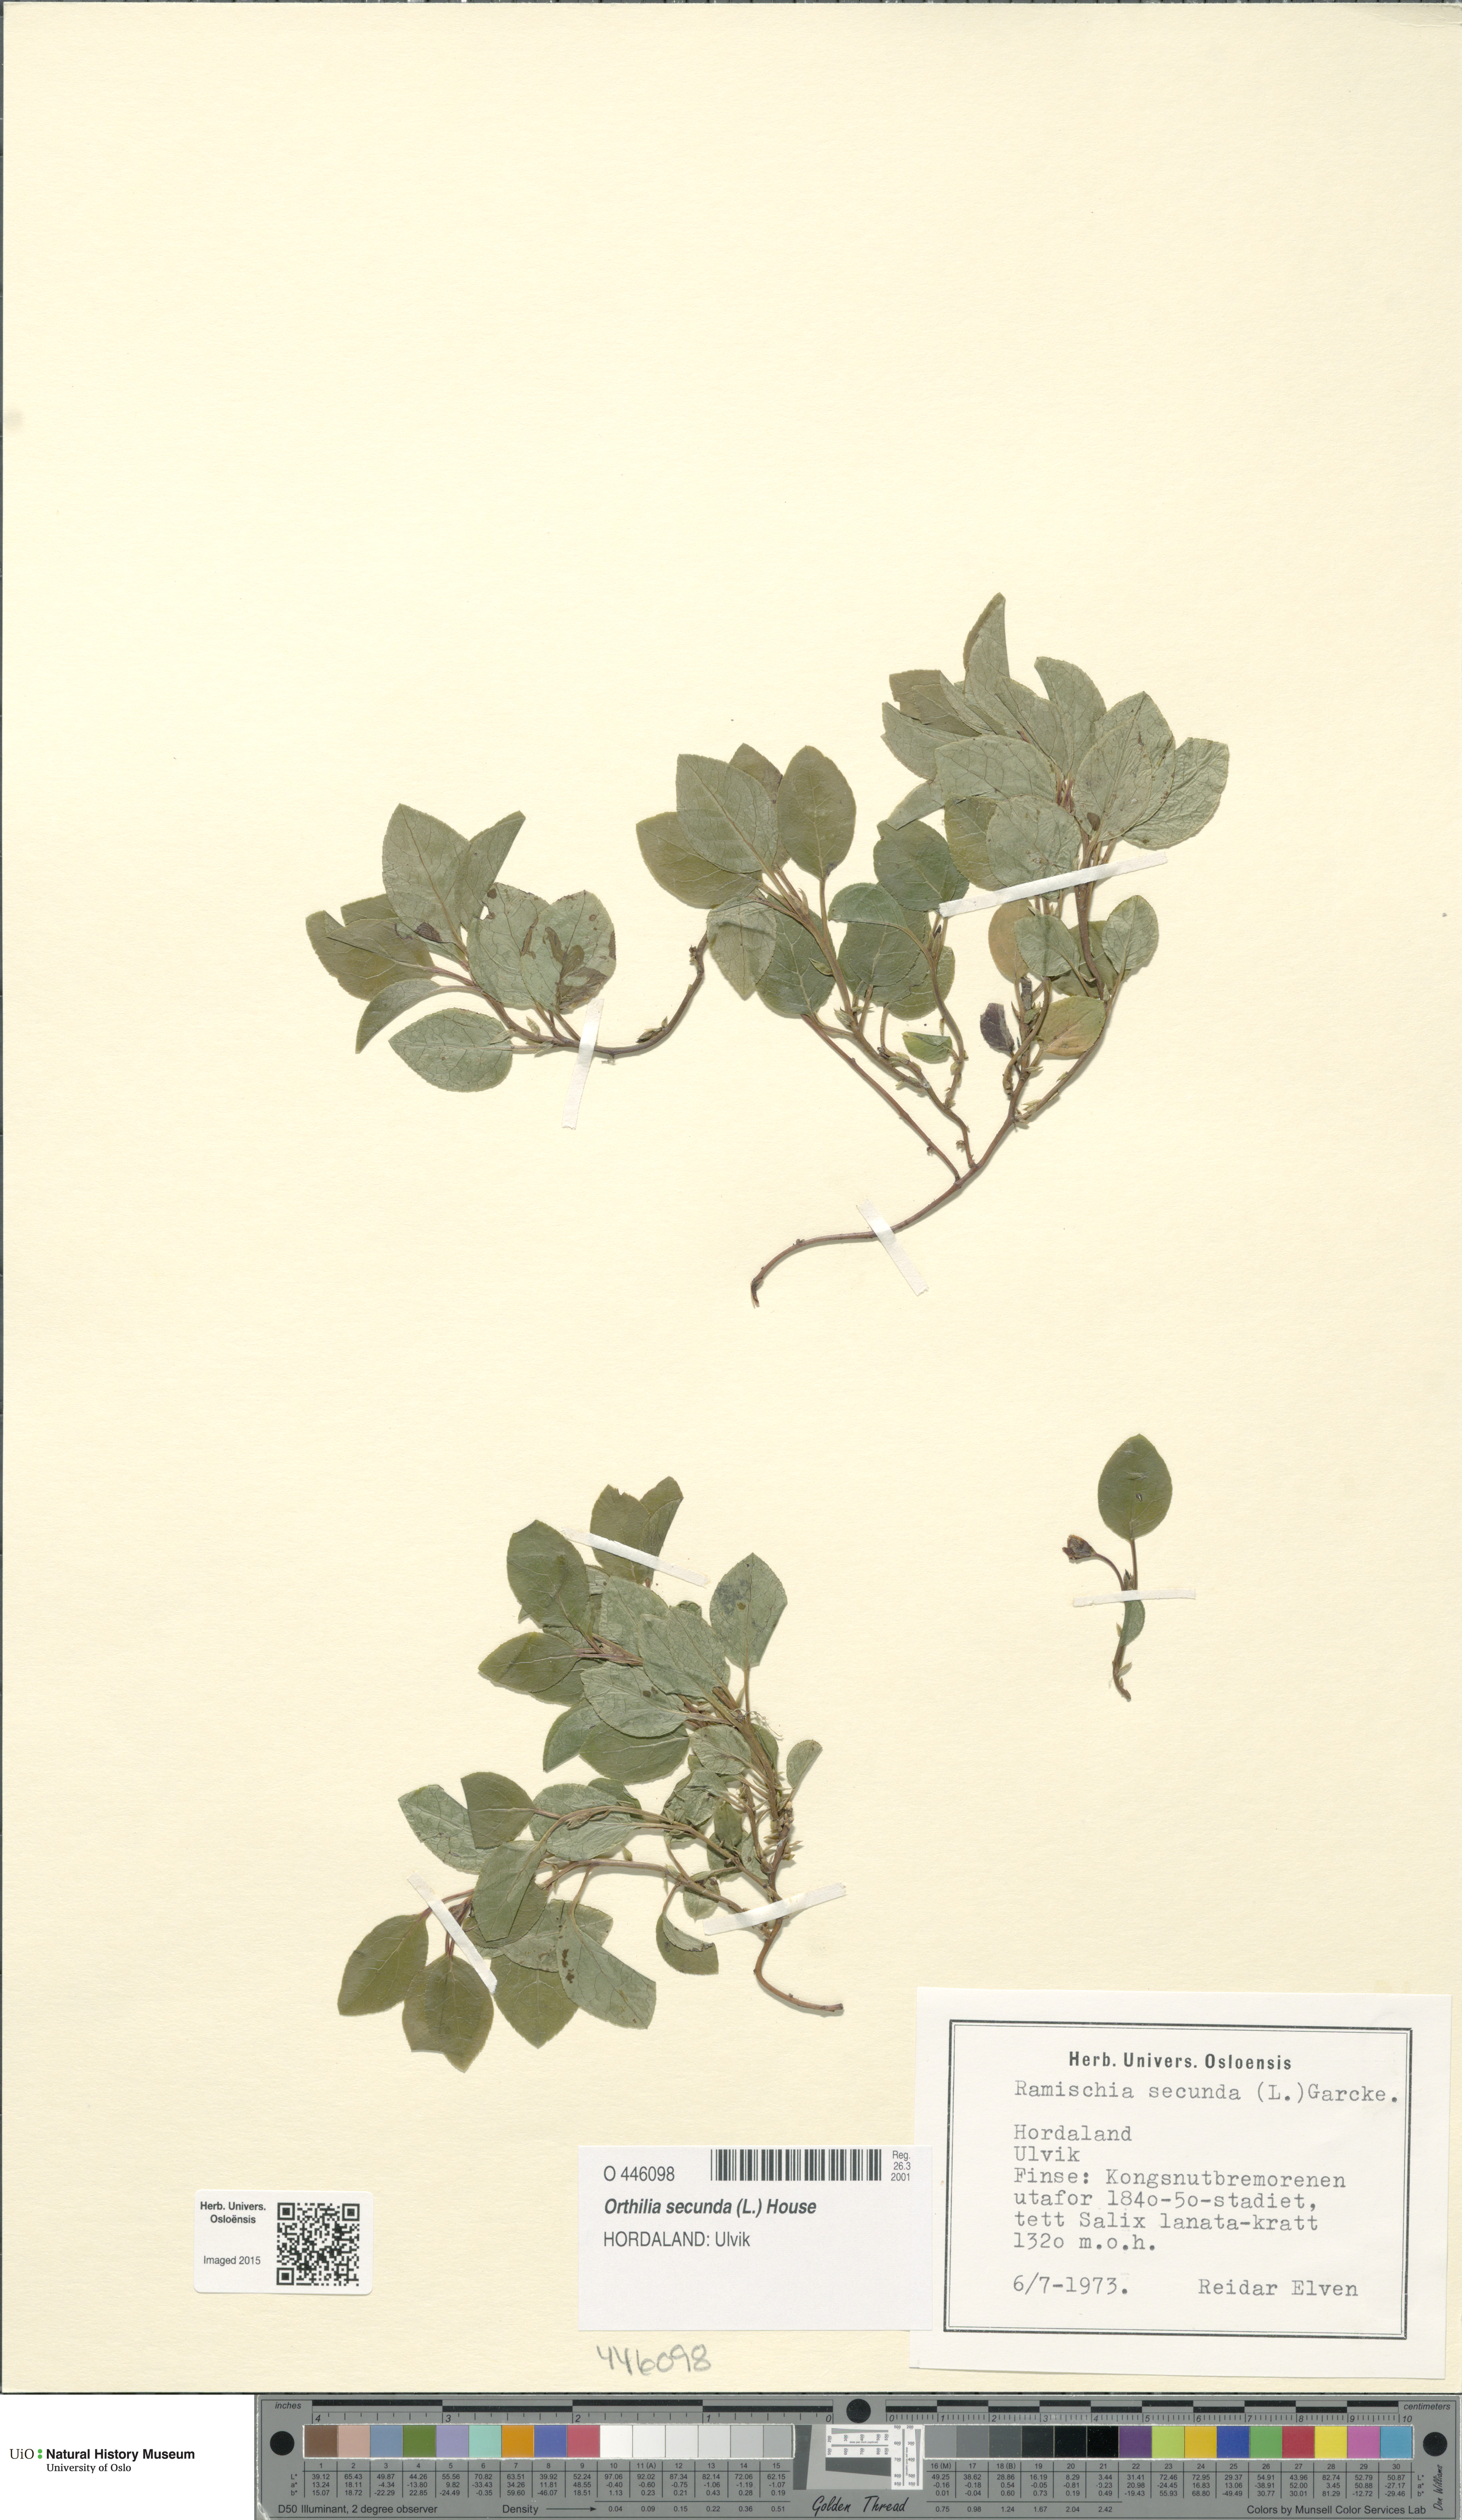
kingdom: Plantae
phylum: Tracheophyta
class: Magnoliopsida
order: Ericales
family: Ericaceae
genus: Orthilia
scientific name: Orthilia secunda
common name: One-sided orthilia
